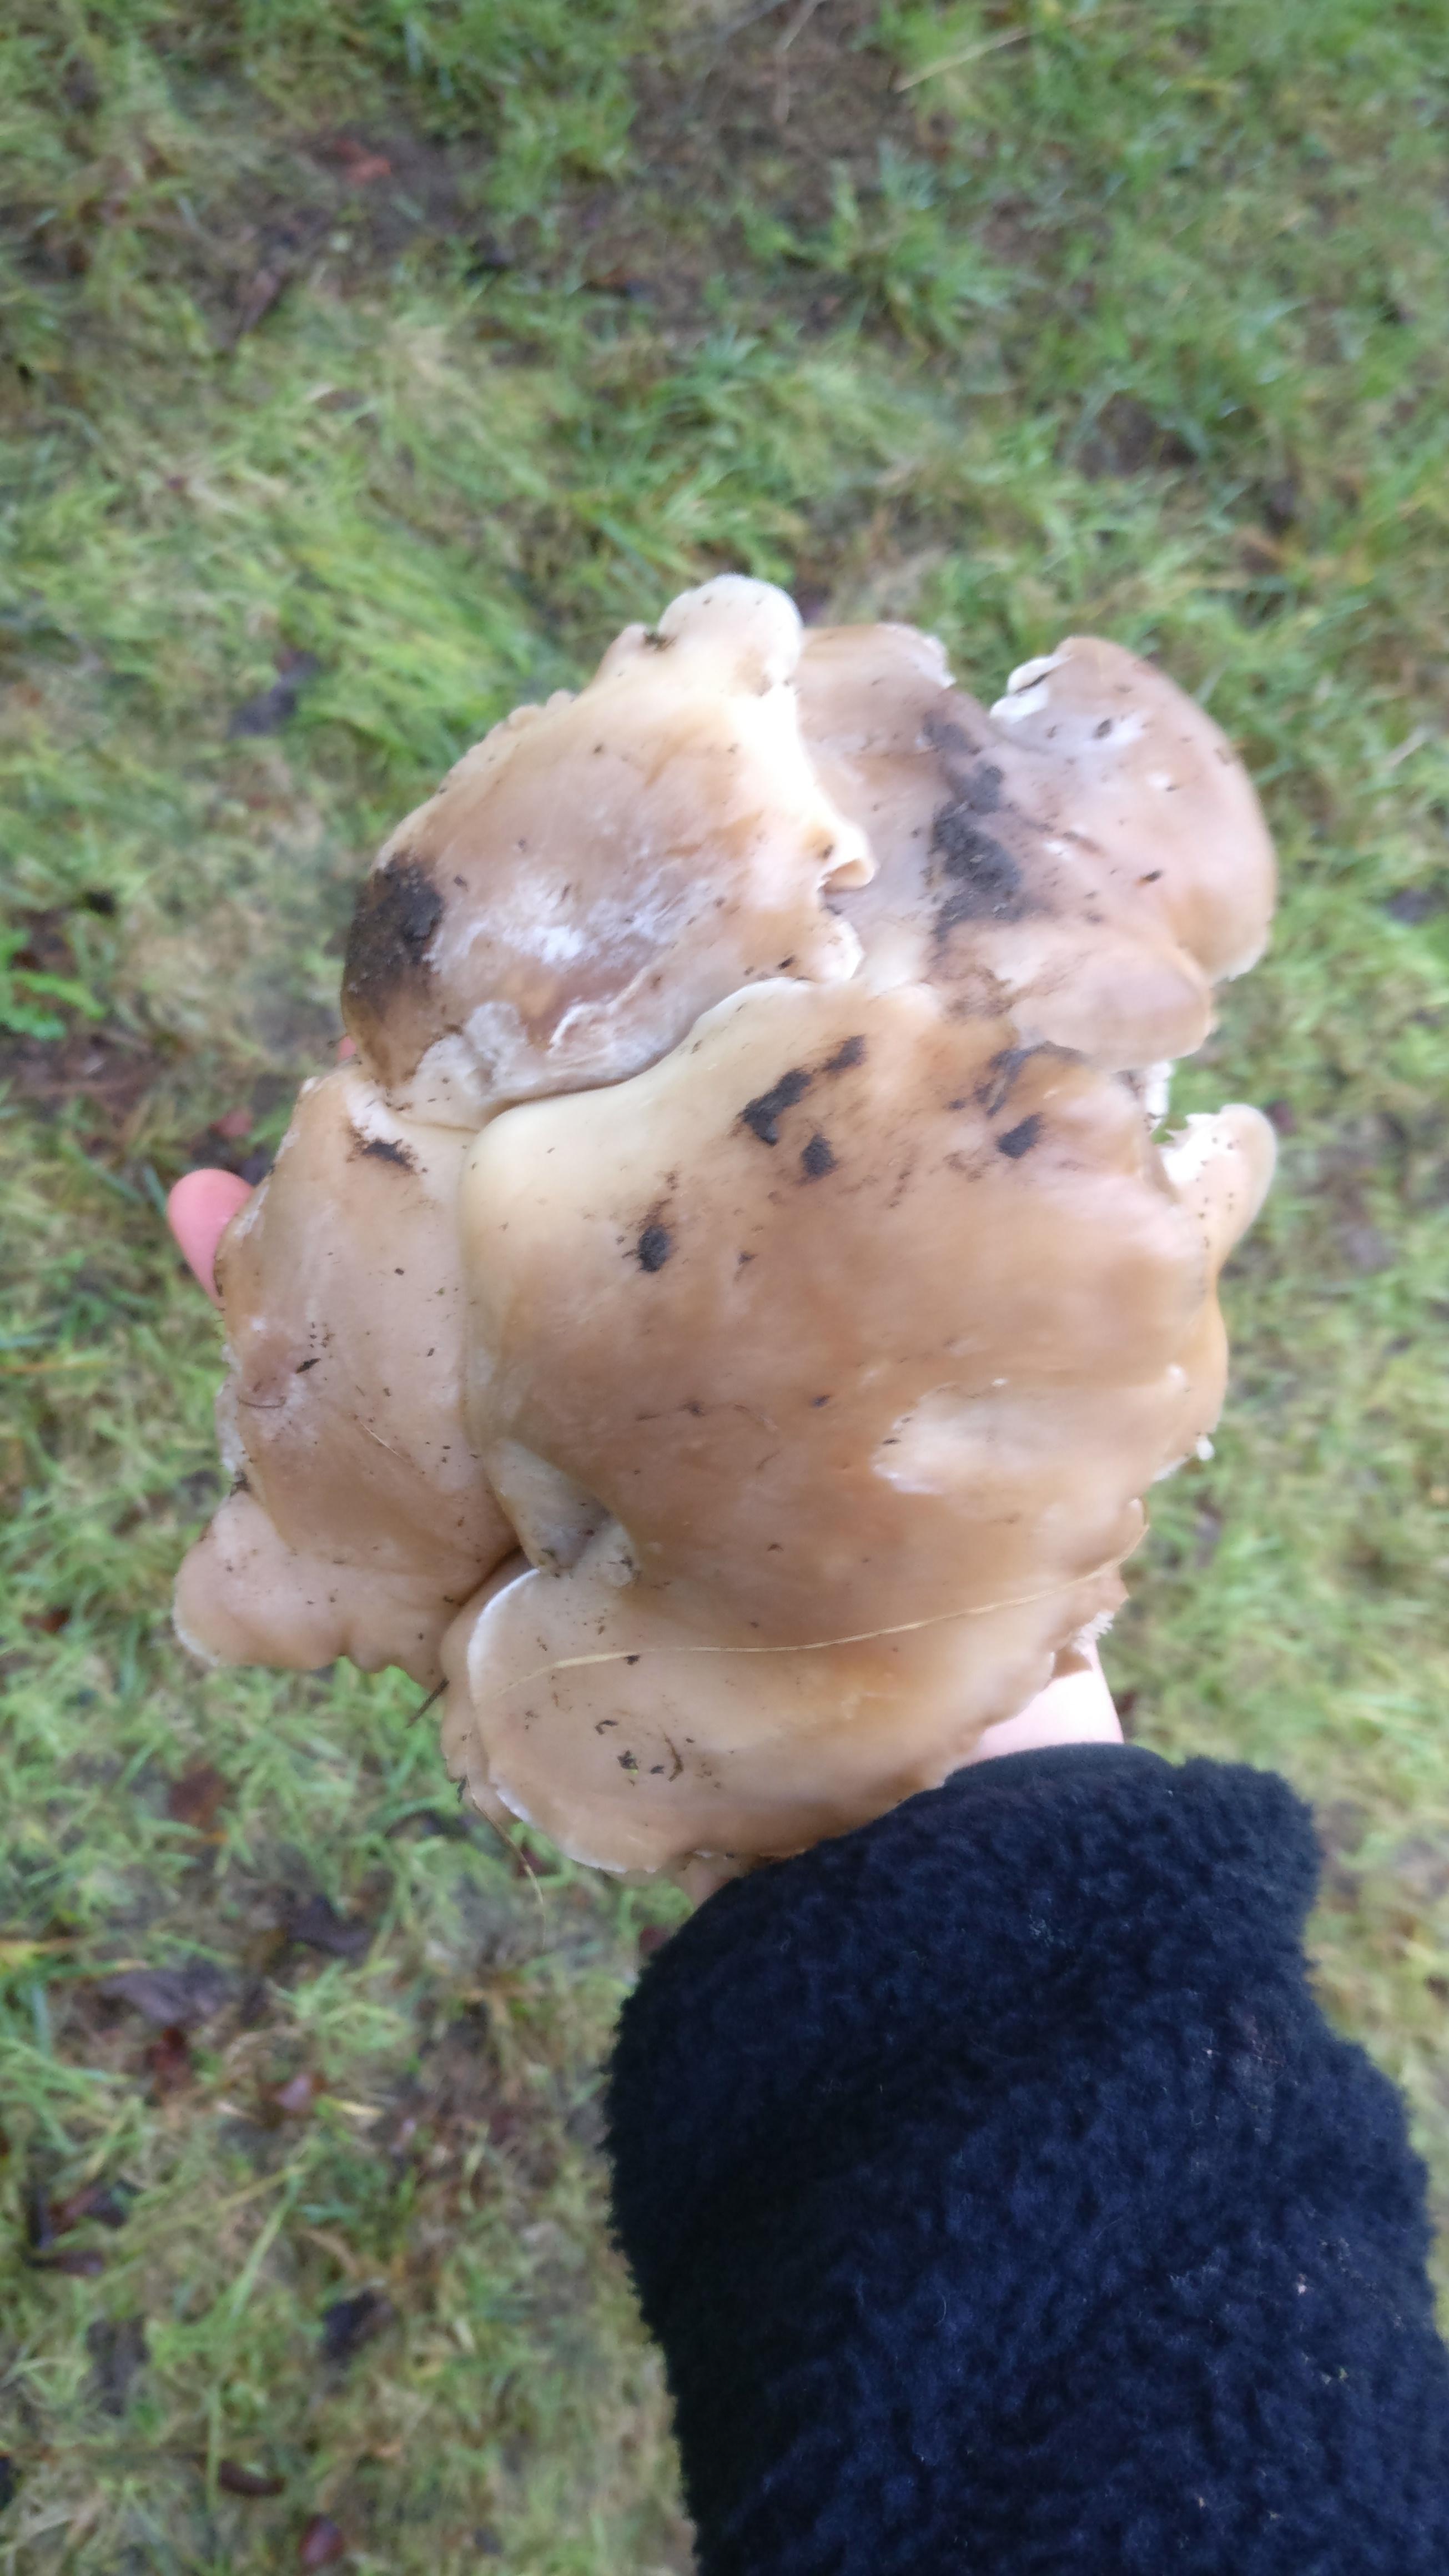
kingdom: Fungi
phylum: Basidiomycota
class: Agaricomycetes
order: Agaricales
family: Tricholomataceae
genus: Lepista
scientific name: Lepista personata
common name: bleg hekseringshat
